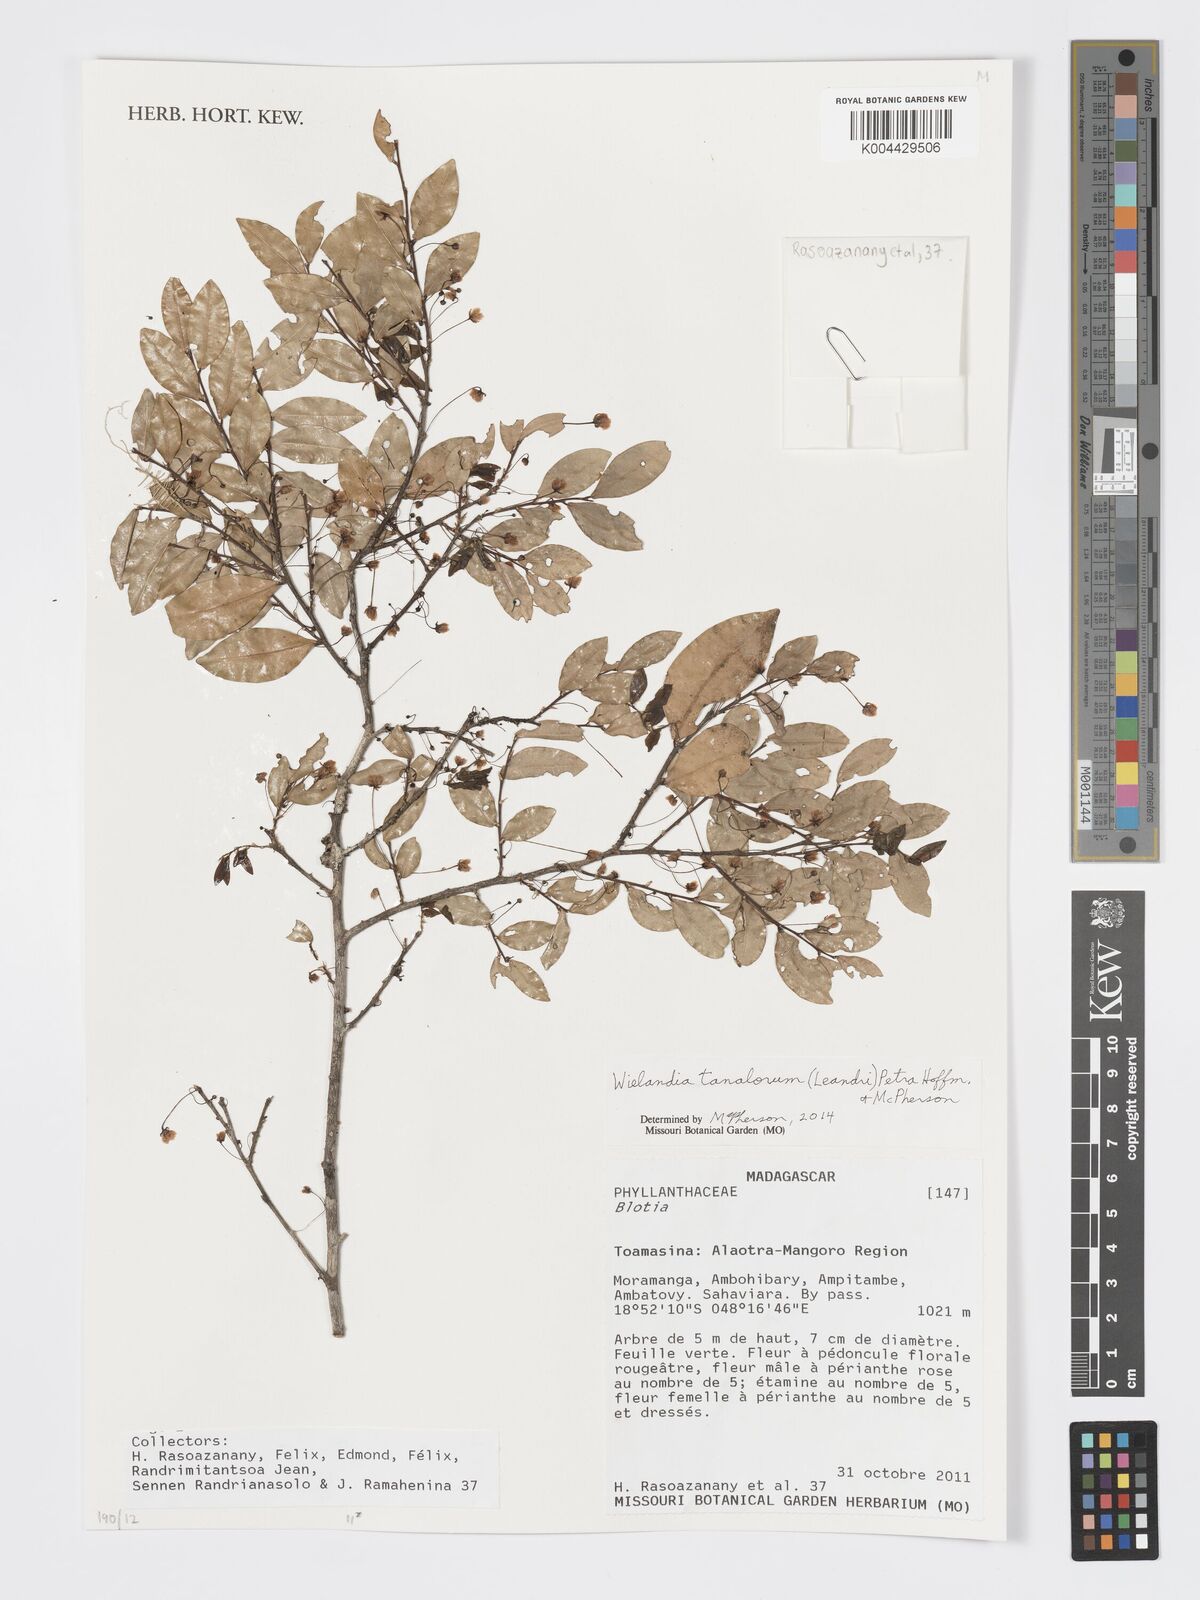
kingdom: Plantae
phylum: Tracheophyta
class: Magnoliopsida
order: Malpighiales
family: Phyllanthaceae
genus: Wielandia
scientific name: Wielandia tanalorum
